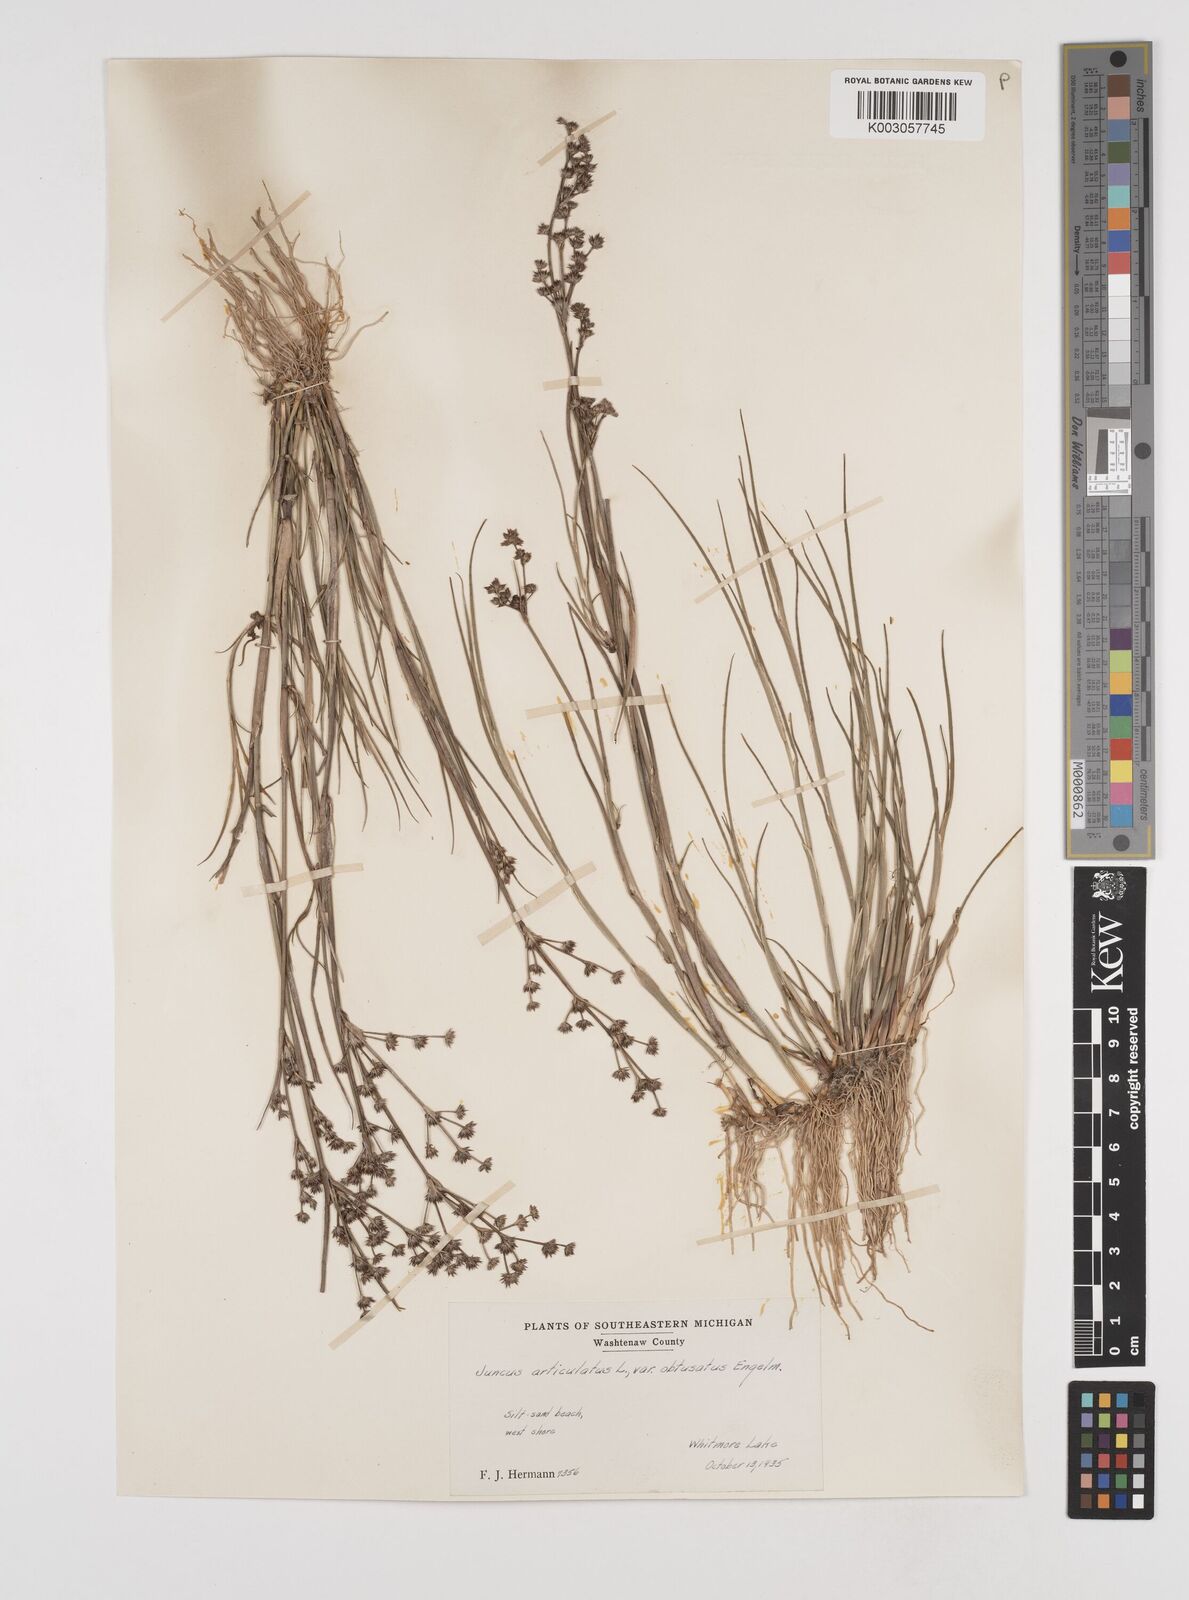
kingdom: Plantae
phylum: Tracheophyta
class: Liliopsida
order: Poales
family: Juncaceae
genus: Juncus
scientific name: Juncus articulatus
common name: Jointed rush
